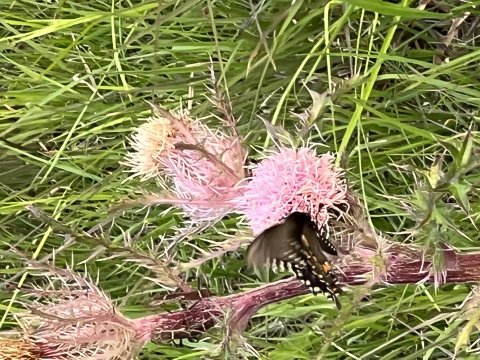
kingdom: Animalia
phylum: Arthropoda
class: Insecta
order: Lepidoptera
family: Papilionidae
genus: Pterourus
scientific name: Pterourus troilus
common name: Spicebush Swallowtail
